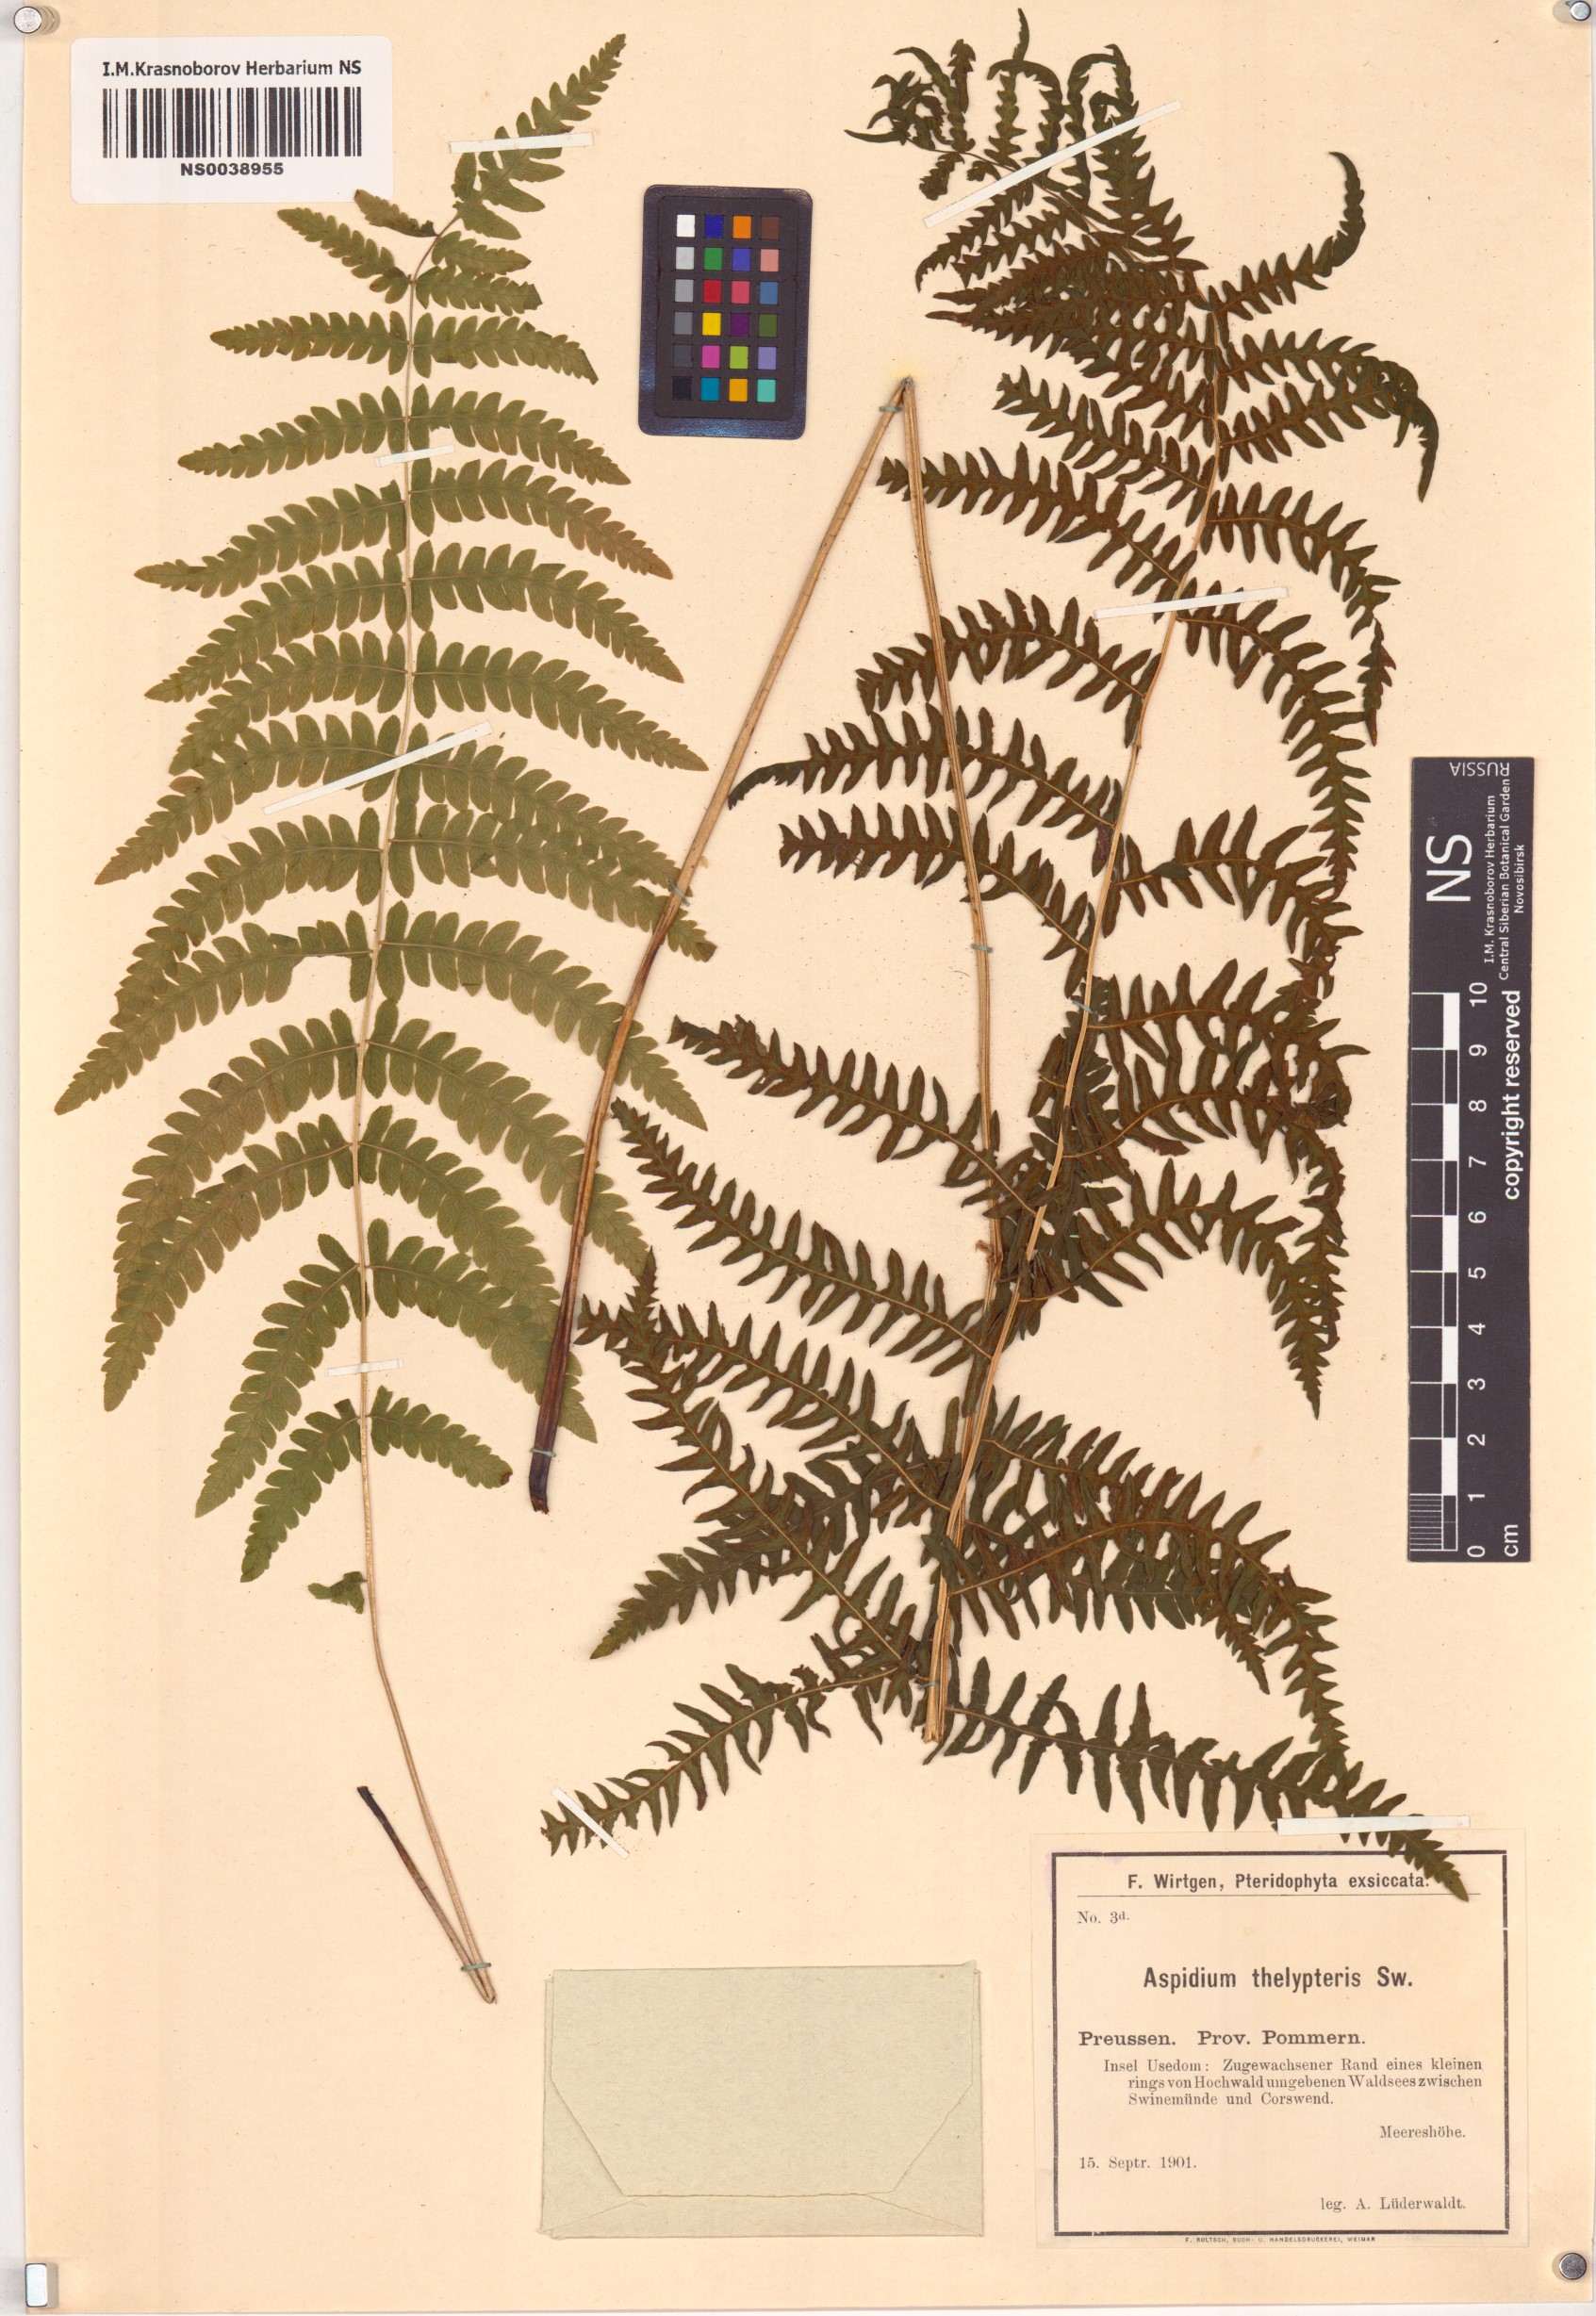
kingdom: Plantae
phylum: Tracheophyta
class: Polypodiopsida
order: Polypodiales
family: Thelypteridaceae
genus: Thelypteris
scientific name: Thelypteris palustris
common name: Marsh fern
